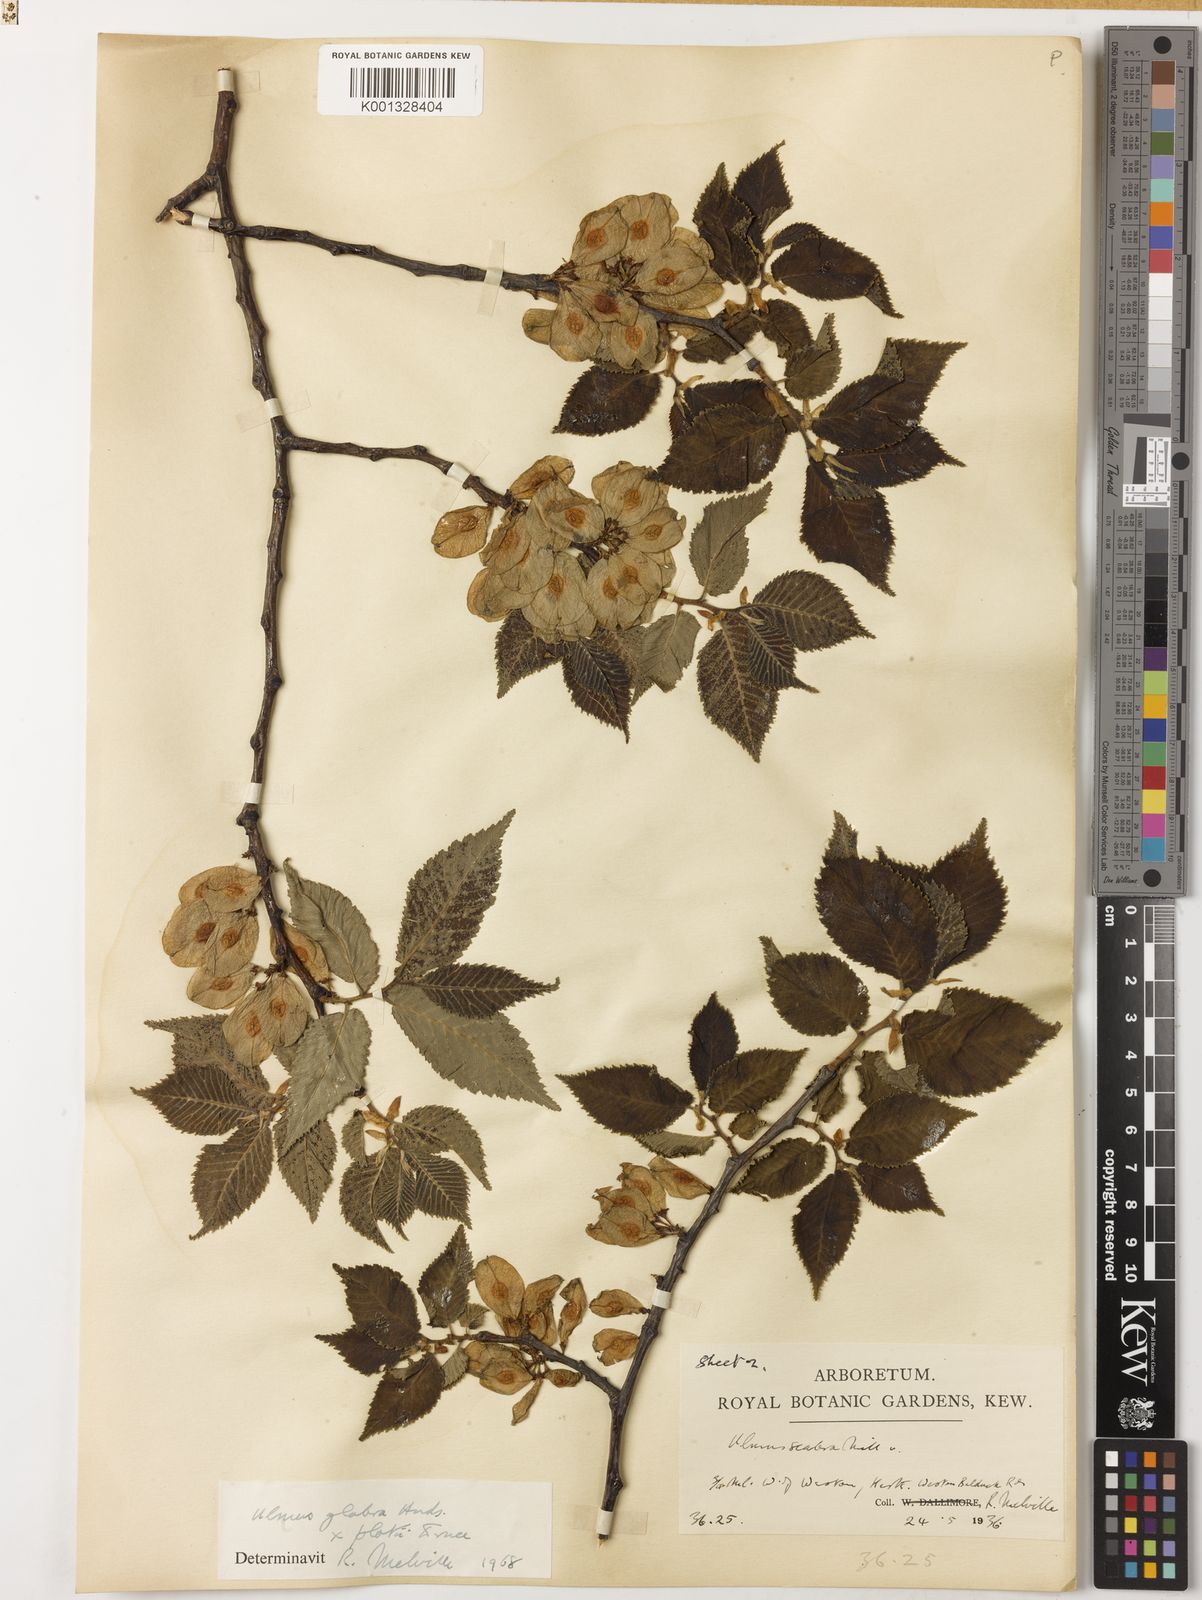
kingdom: Plantae
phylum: Tracheophyta
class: Magnoliopsida
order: Rosales
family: Ulmaceae
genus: Ulmus
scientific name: Ulmus glabra
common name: Wych elm
